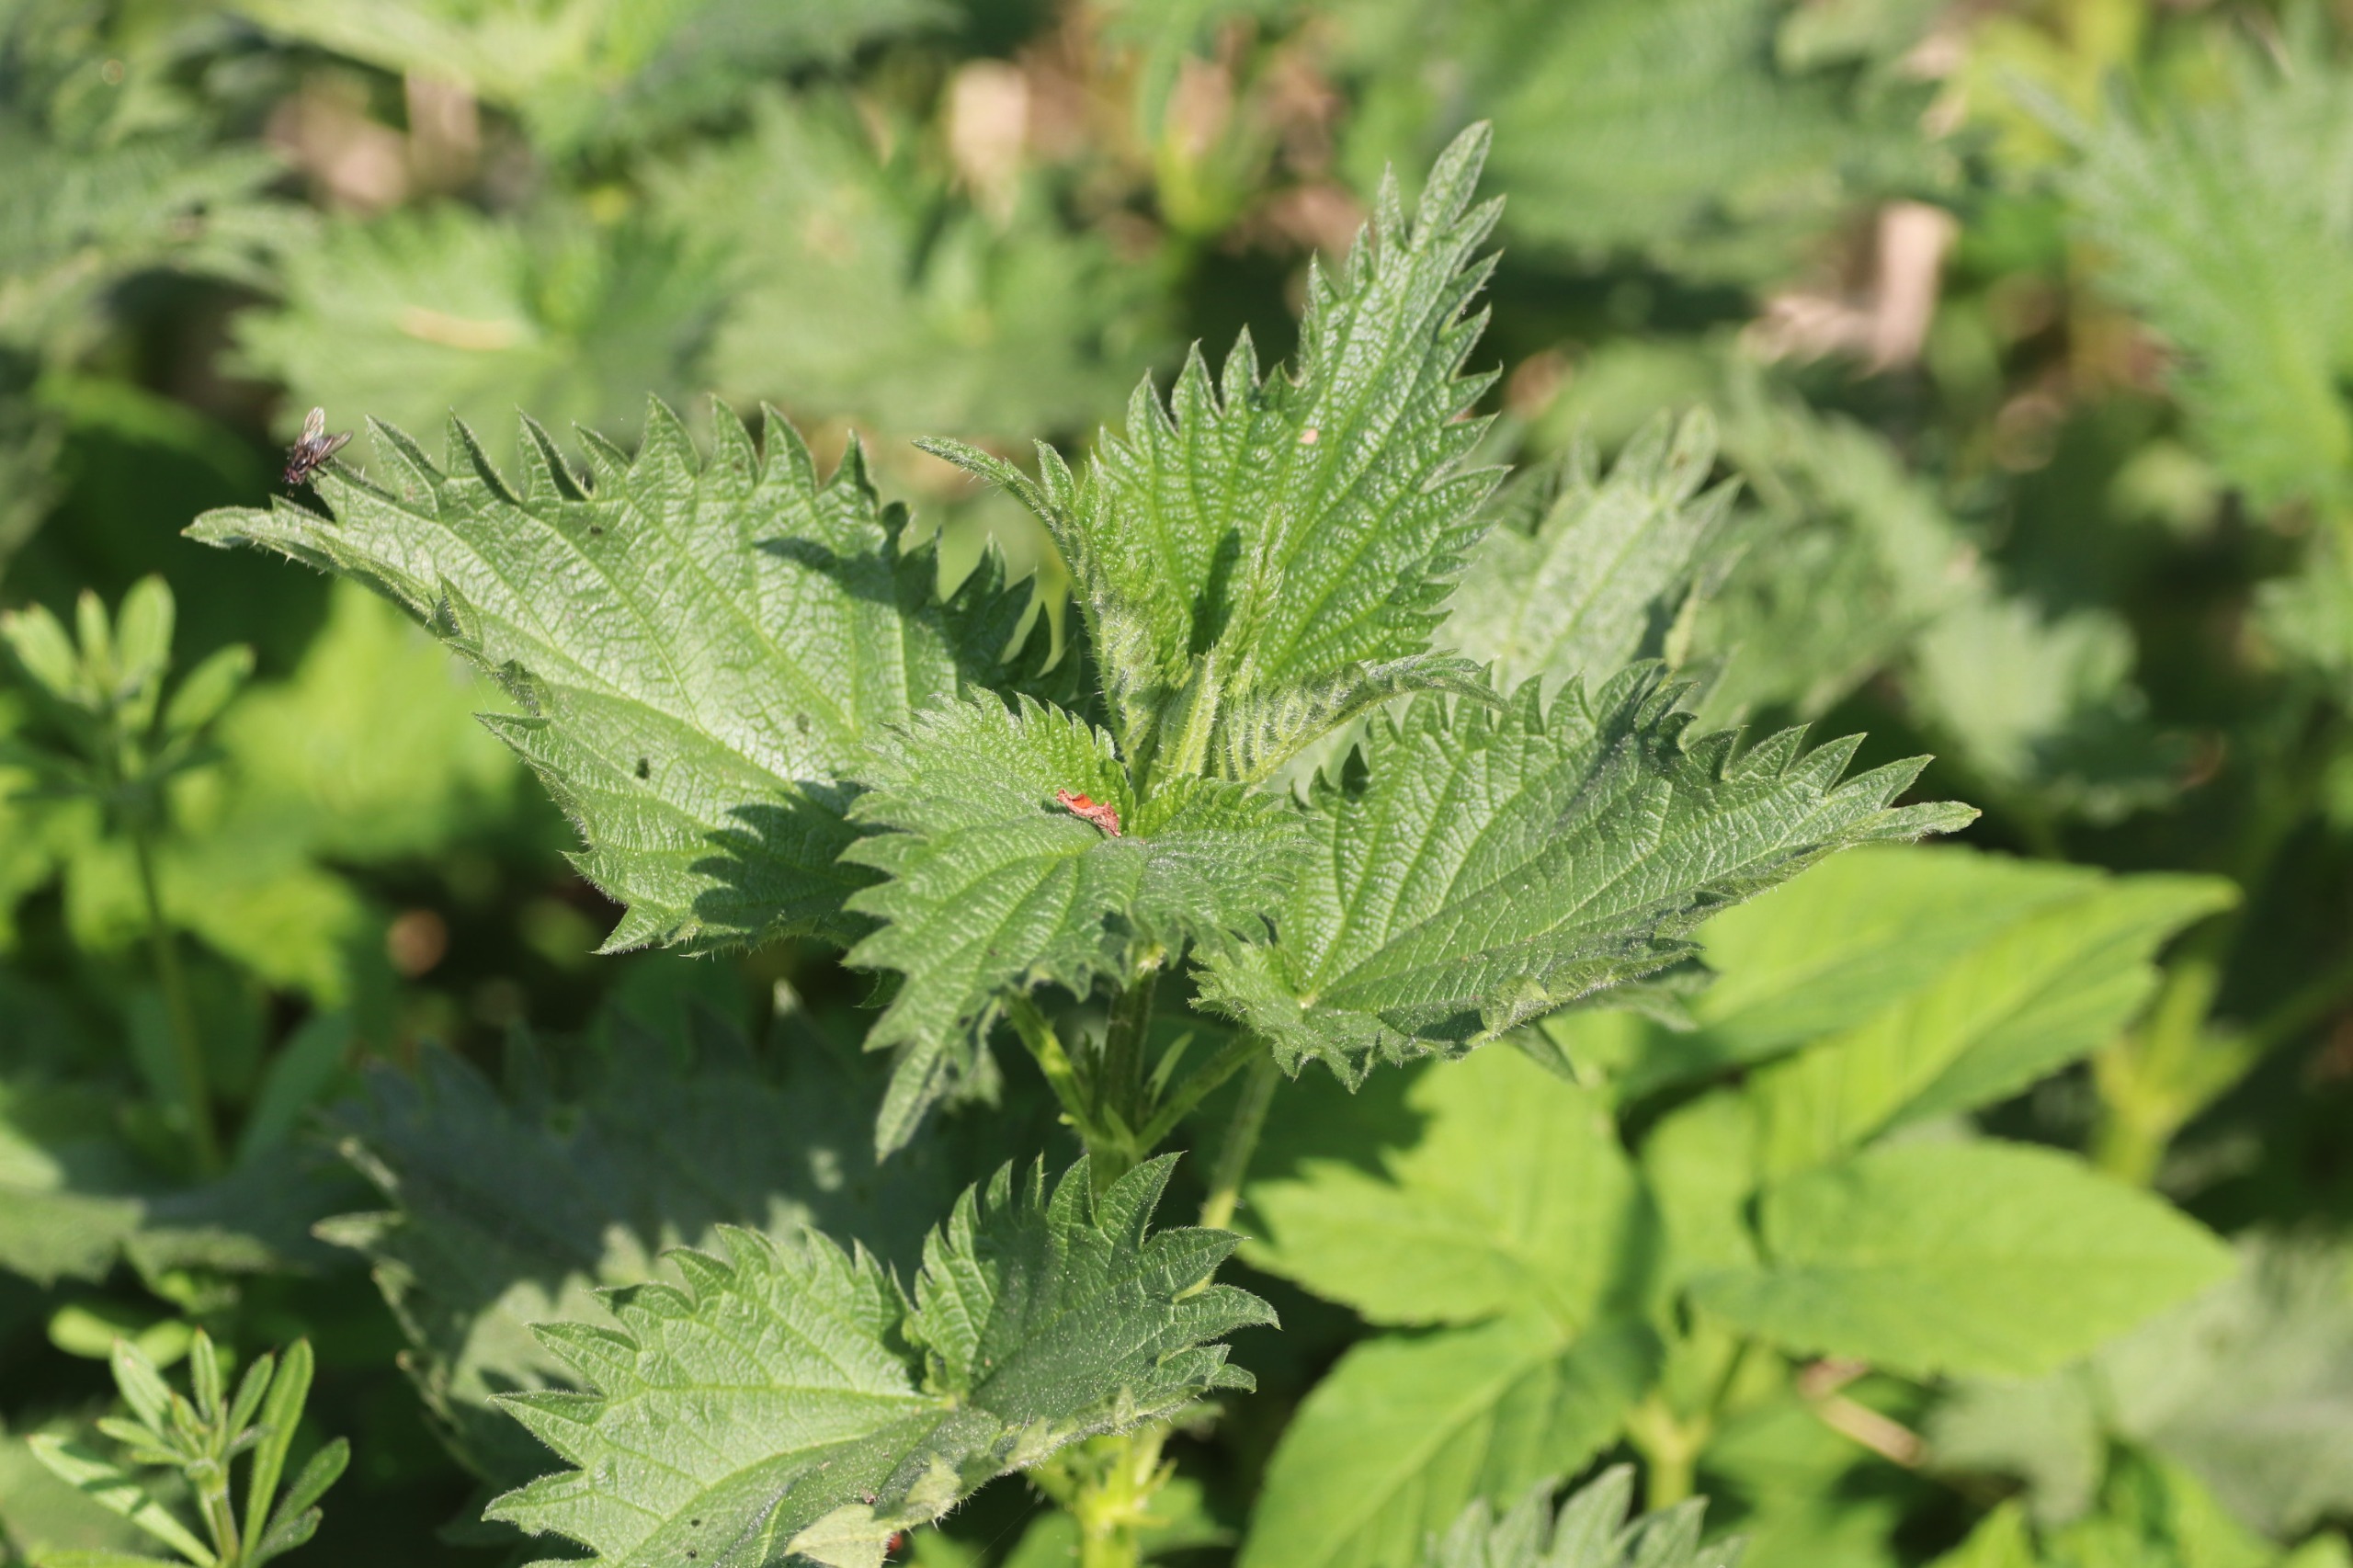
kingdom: Plantae
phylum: Tracheophyta
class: Magnoliopsida
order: Rosales
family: Urticaceae
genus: Urtica
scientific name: Urtica dioica
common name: Stor nælde
